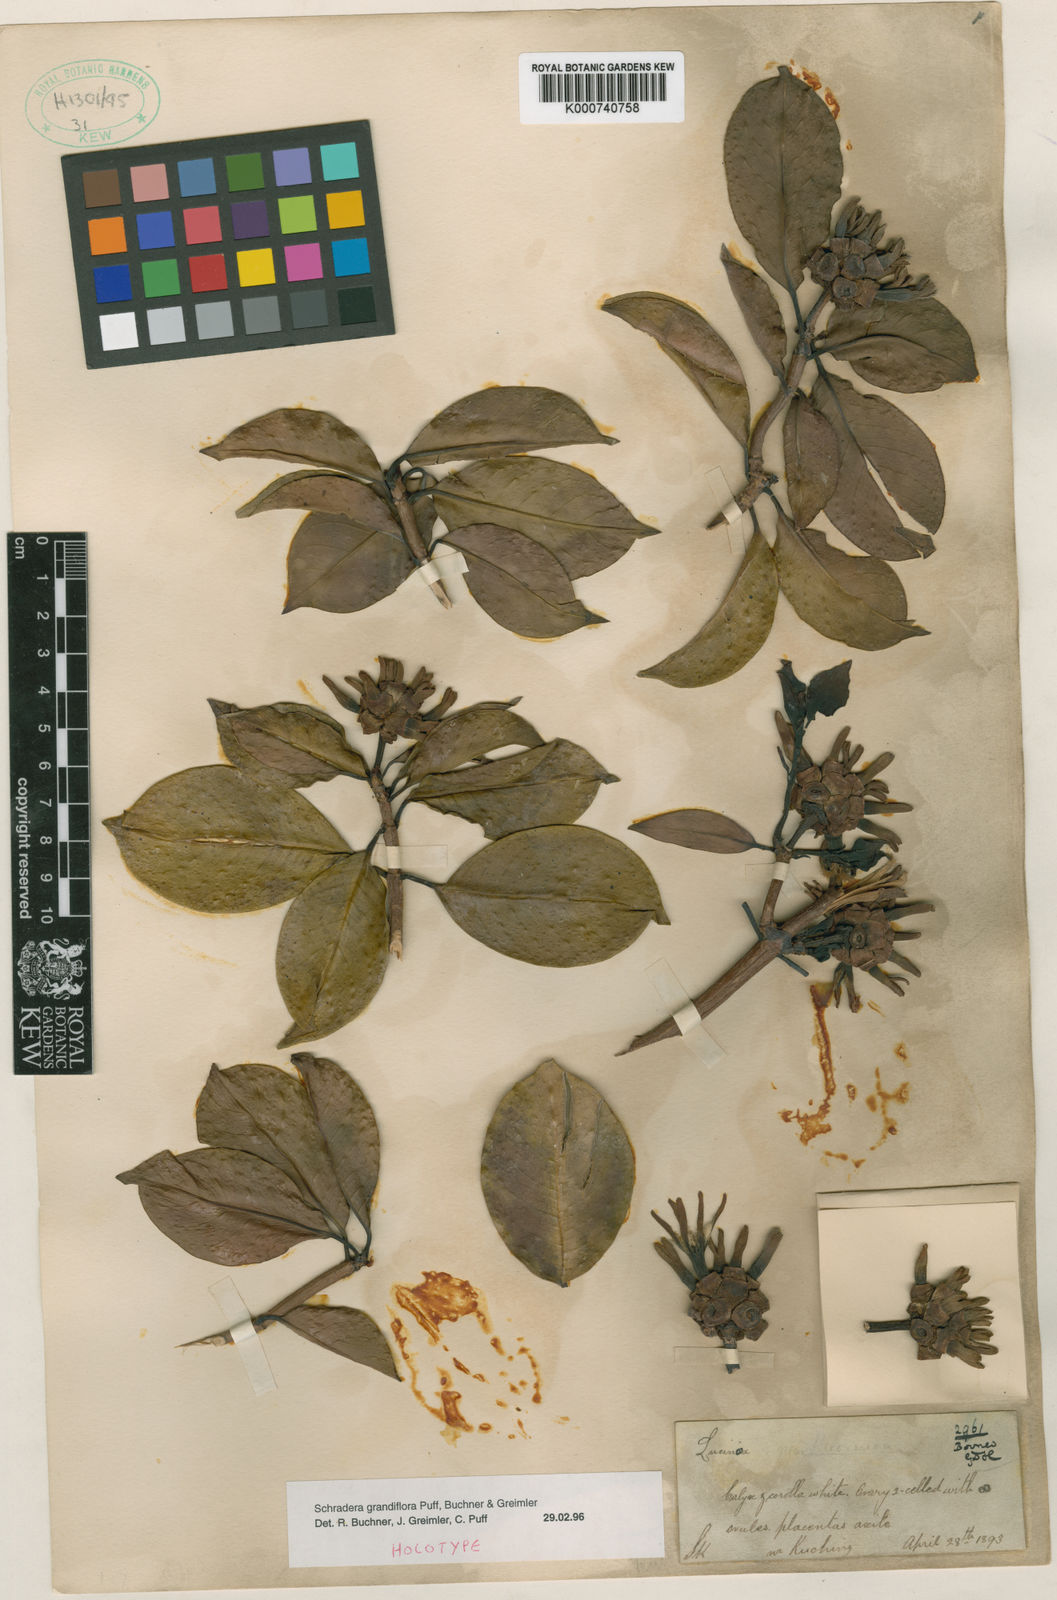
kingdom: Plantae
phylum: Tracheophyta
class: Magnoliopsida
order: Gentianales
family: Rubiaceae
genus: Schradera
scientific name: Schradera grandiflora
